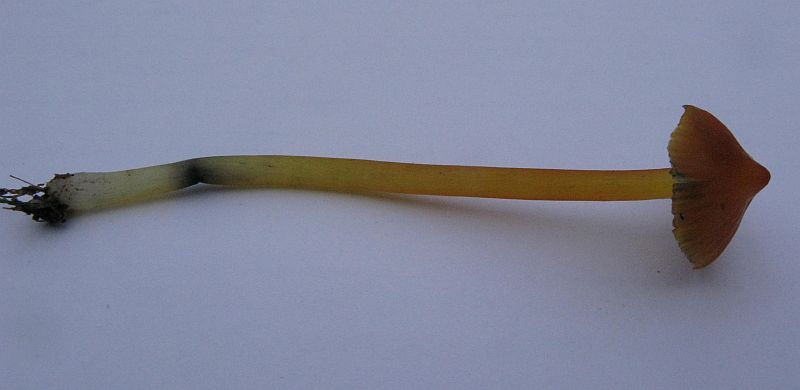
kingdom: Fungi
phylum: Basidiomycota
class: Agaricomycetes
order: Agaricales
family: Hygrophoraceae
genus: Hygrocybe
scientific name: Hygrocybe conica
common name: Blackening wax-cap
